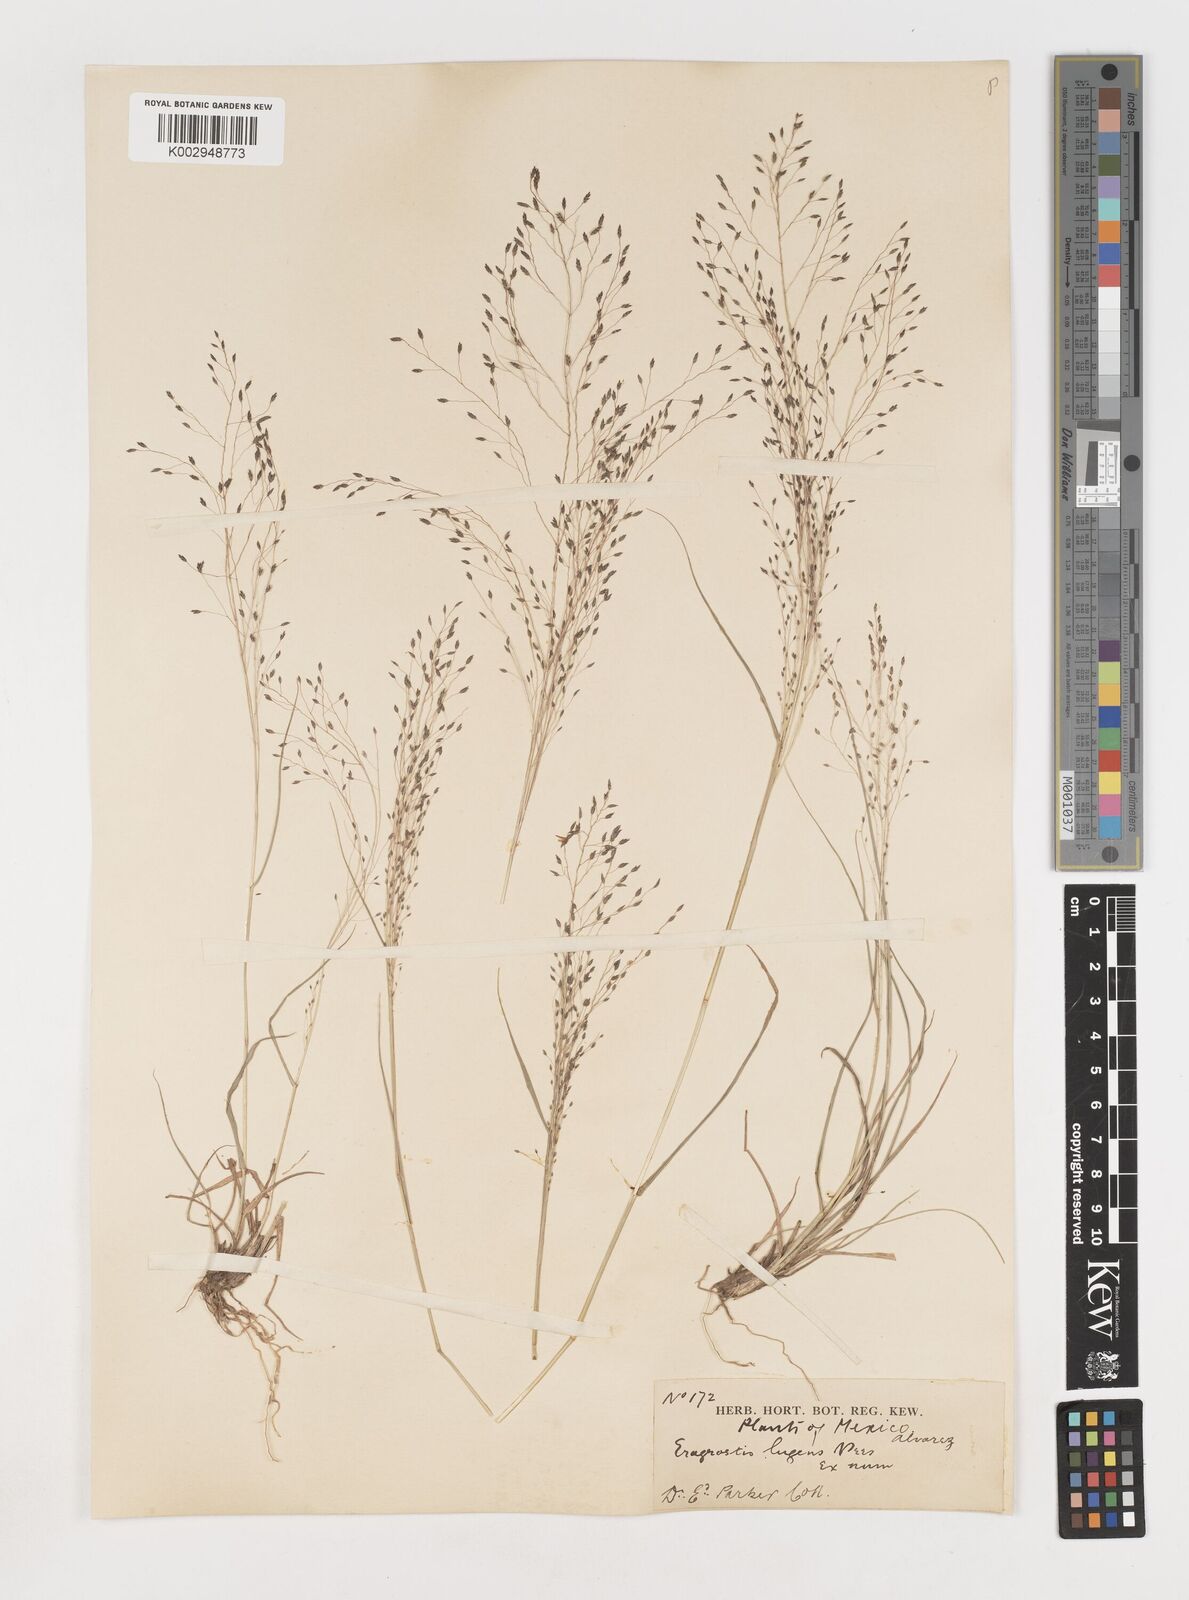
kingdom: Plantae
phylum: Tracheophyta
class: Liliopsida
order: Poales
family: Poaceae
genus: Eragrostis
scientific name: Eragrostis
